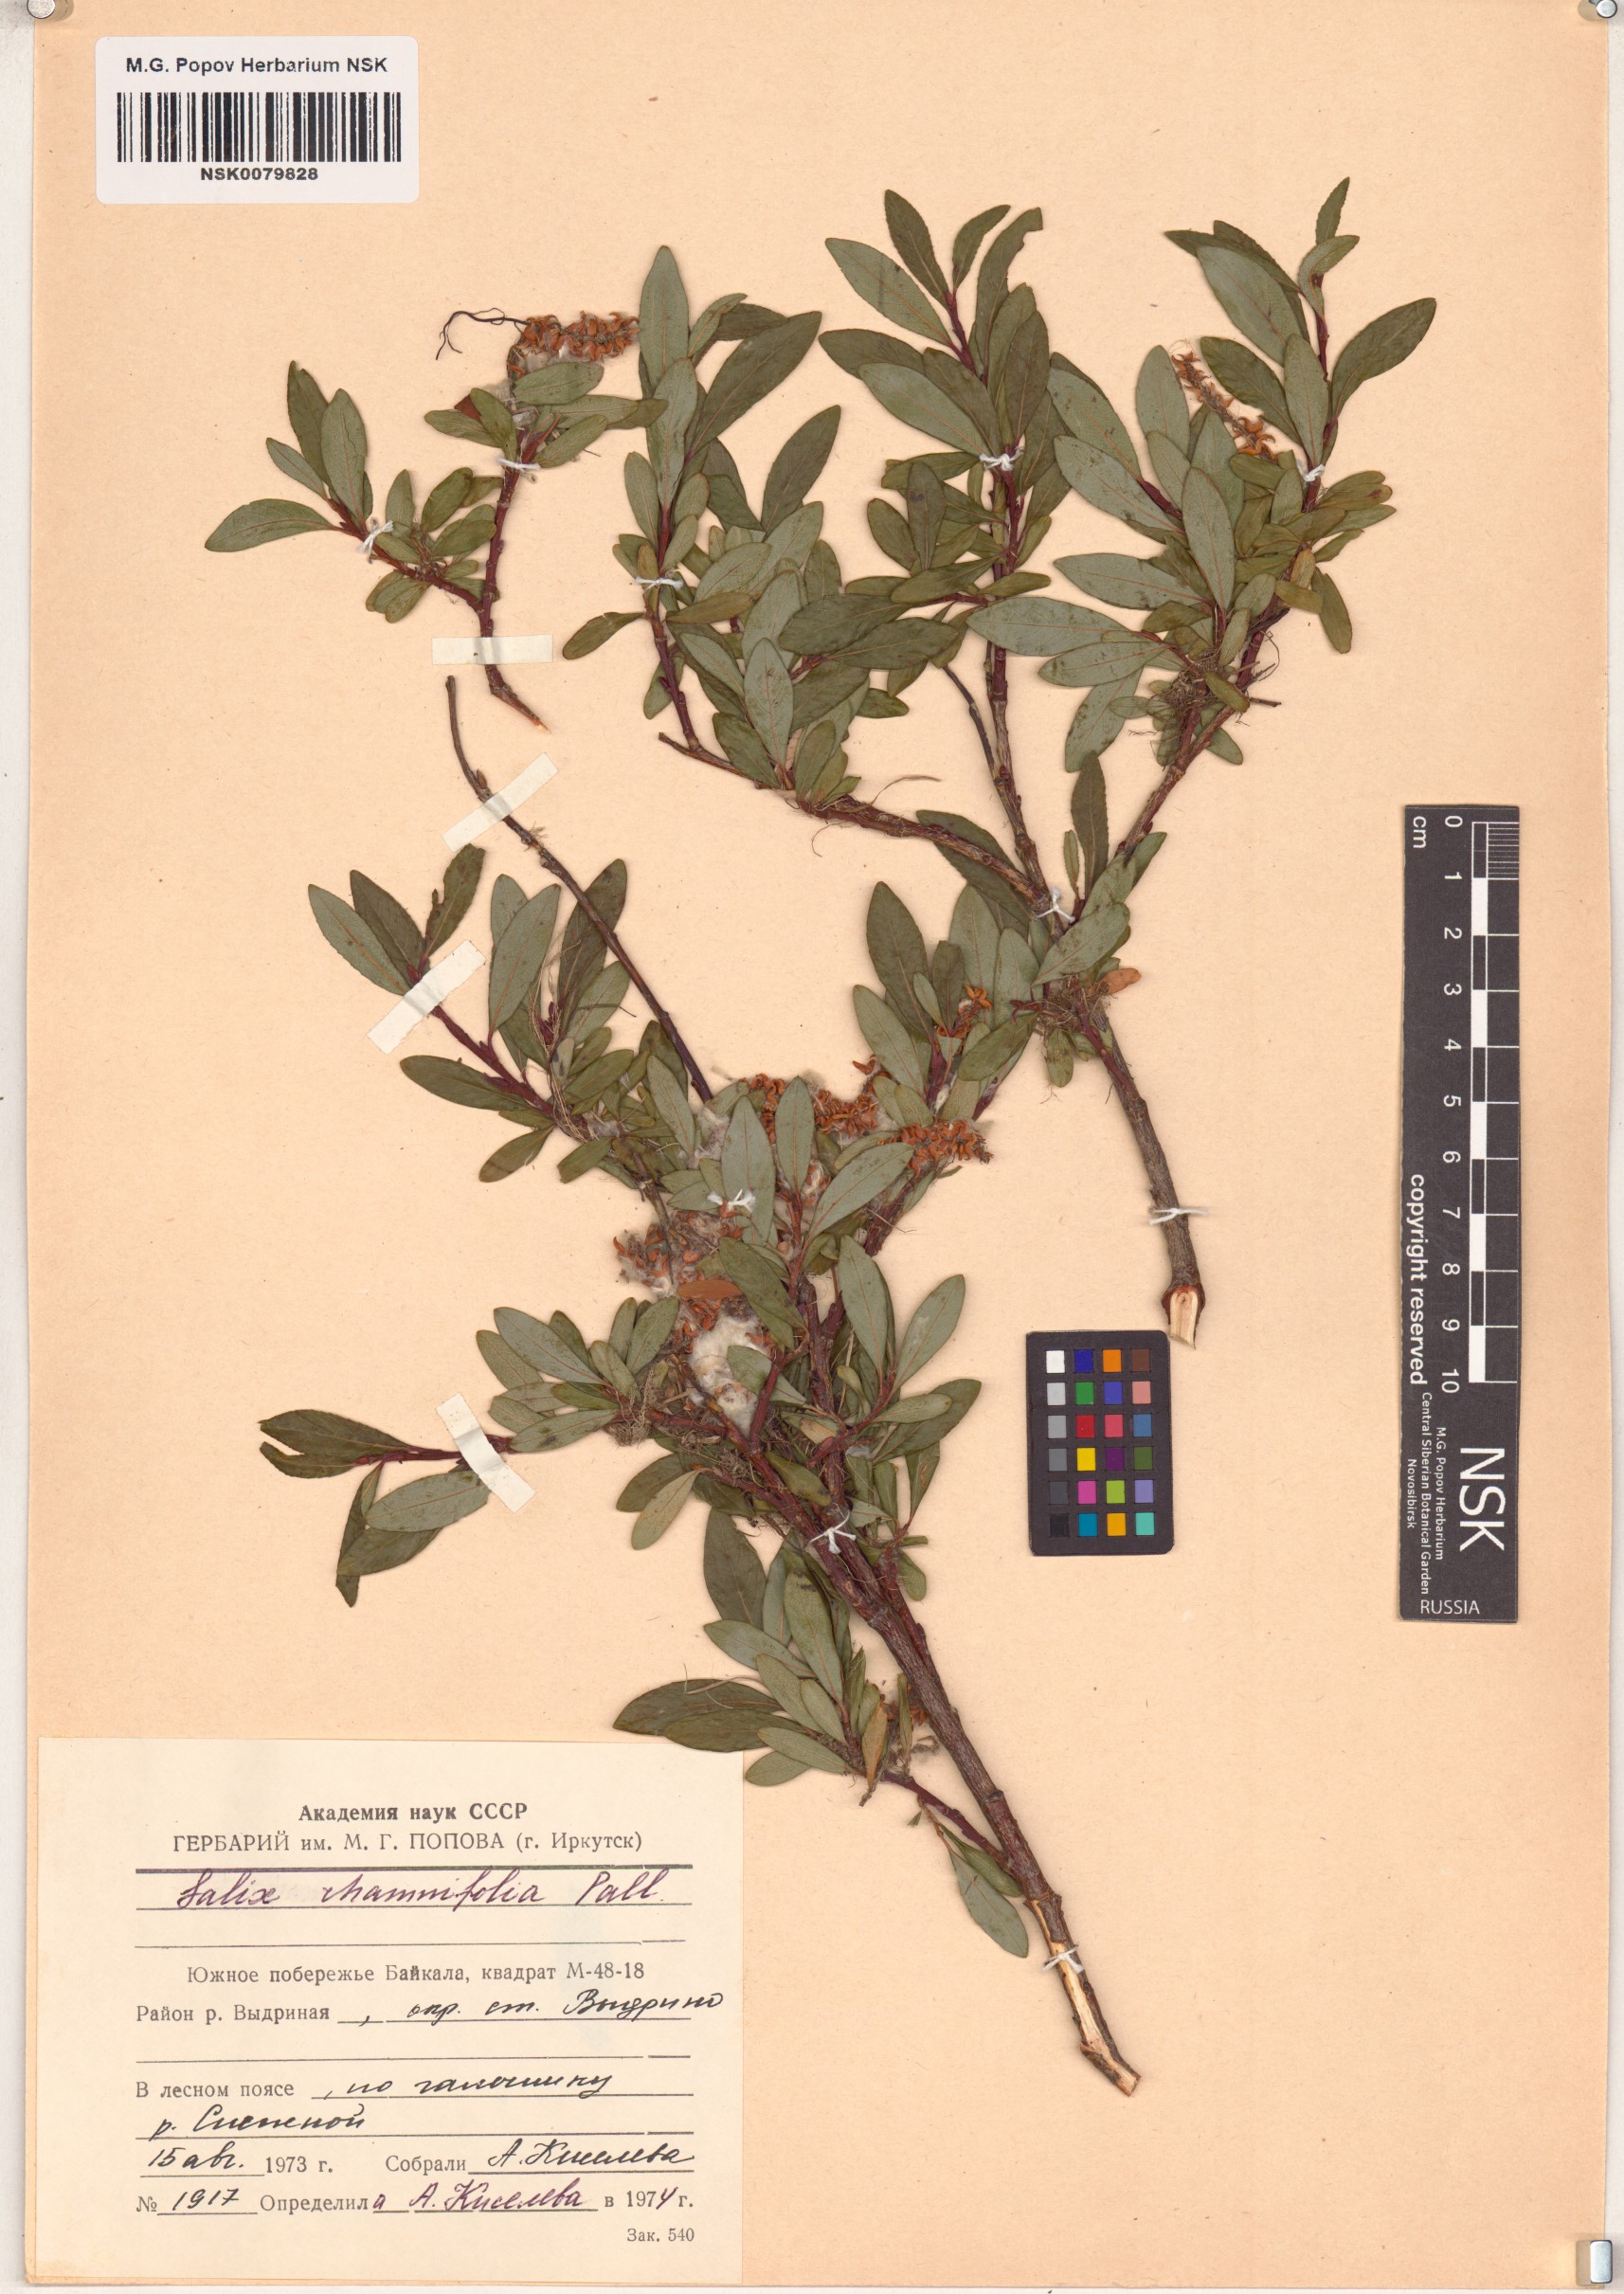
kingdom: Plantae
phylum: Tracheophyta
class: Magnoliopsida
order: Malpighiales
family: Salicaceae
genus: Salix
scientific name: Salix rhamnifolia
